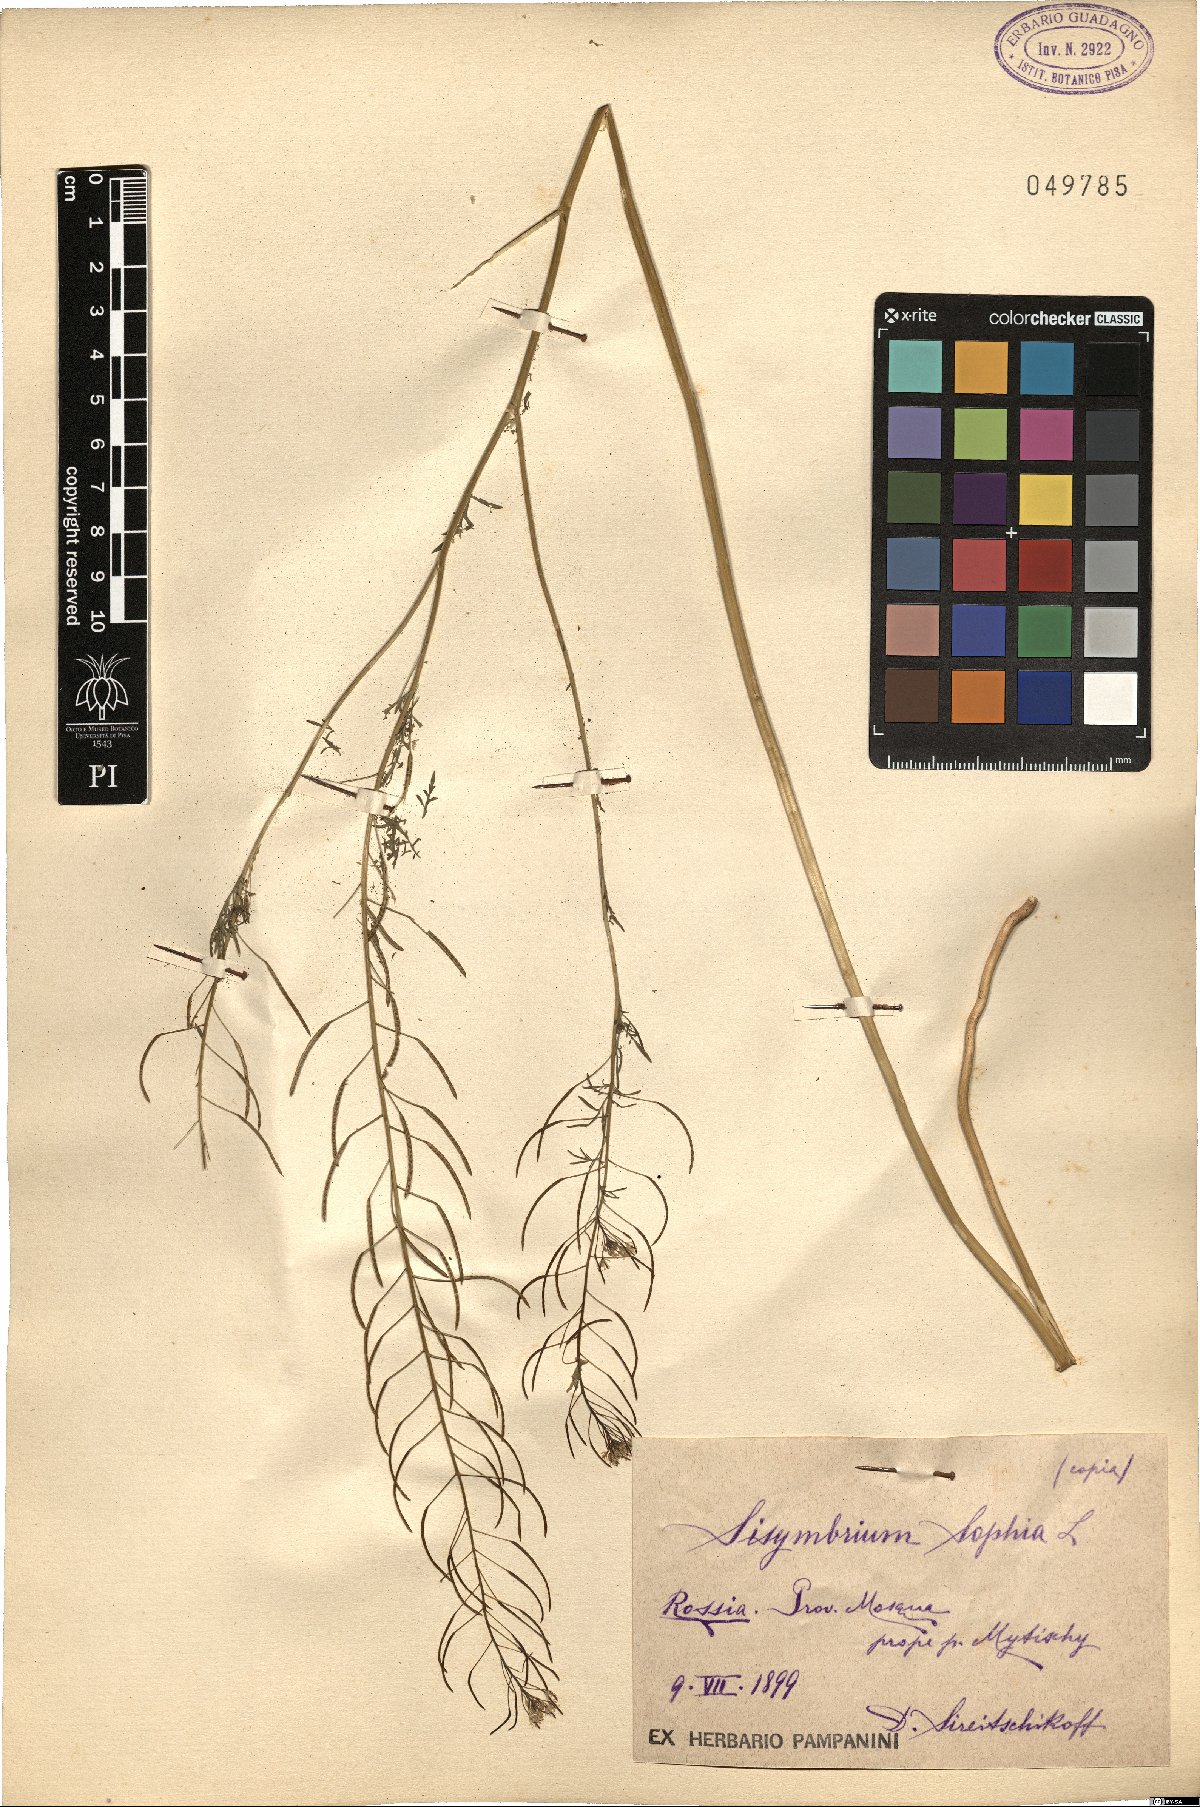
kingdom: Plantae
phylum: Tracheophyta
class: Magnoliopsida
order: Brassicales
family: Brassicaceae
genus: Descurainia
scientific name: Descurainia sophia
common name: Flixweed
